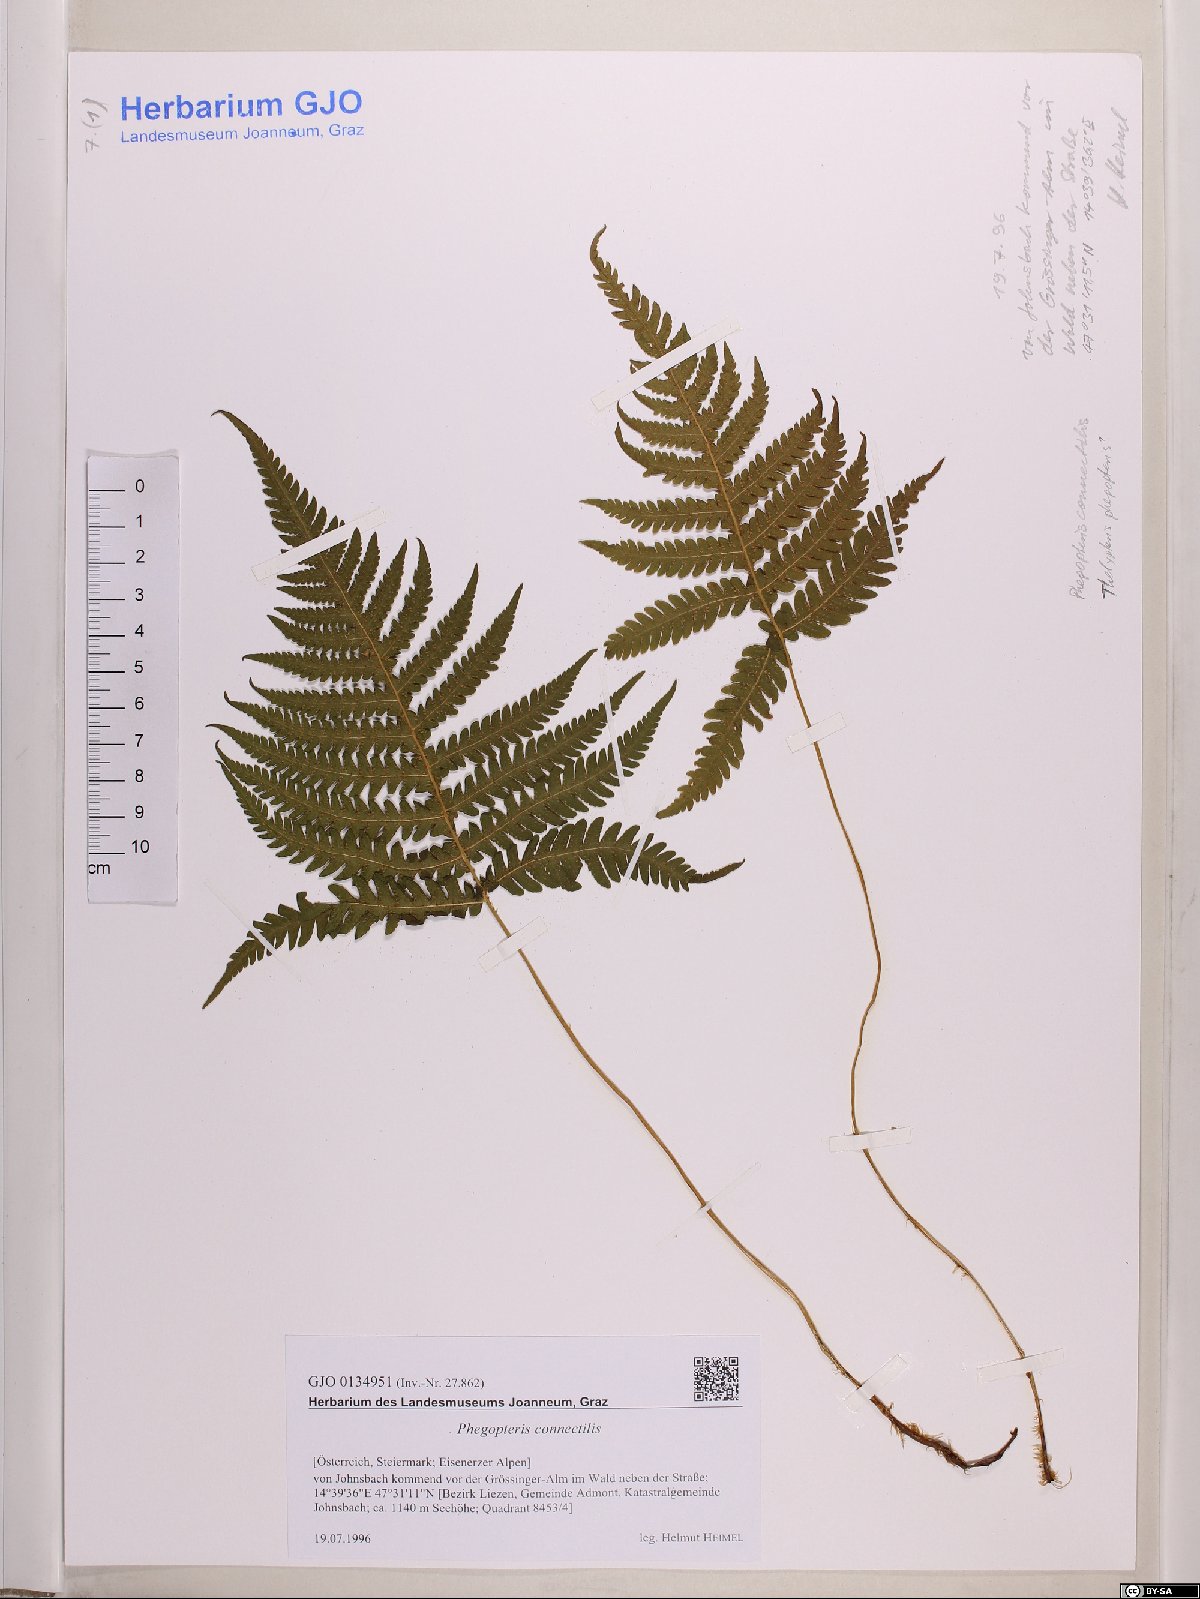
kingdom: Plantae
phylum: Tracheophyta
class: Polypodiopsida
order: Polypodiales
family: Thelypteridaceae
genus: Phegopteris
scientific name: Phegopteris connectilis
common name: Beech fern
